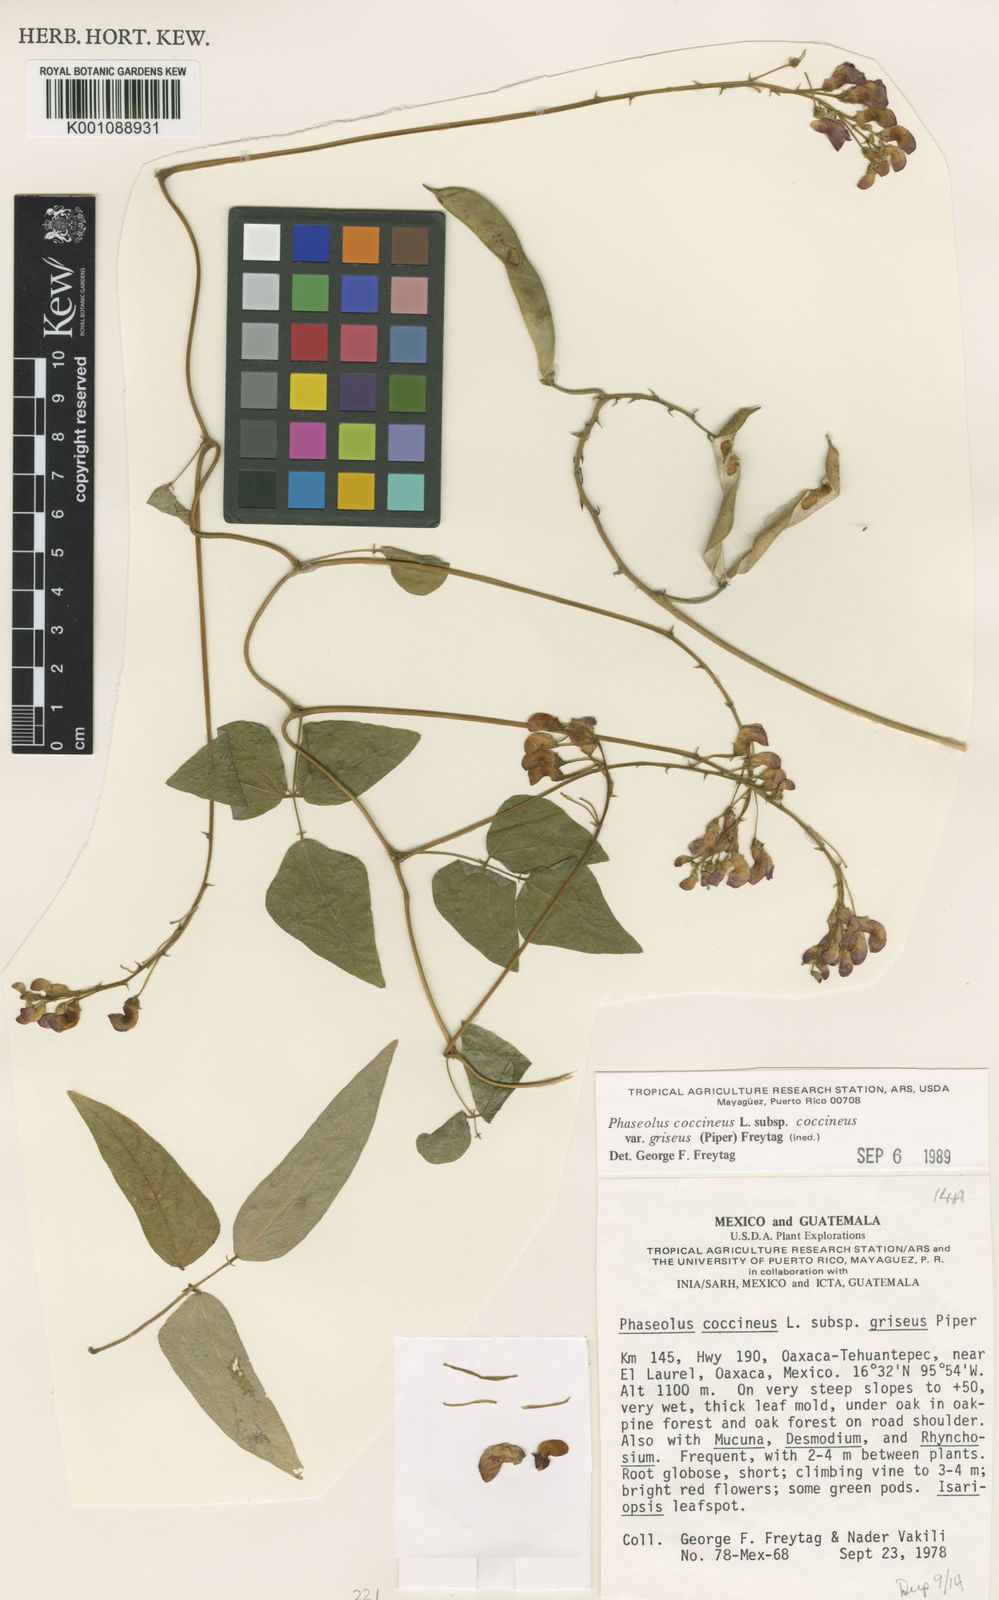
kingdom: Plantae
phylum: Tracheophyta
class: Magnoliopsida
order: Fabales
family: Fabaceae
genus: Phaseolus
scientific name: Phaseolus
